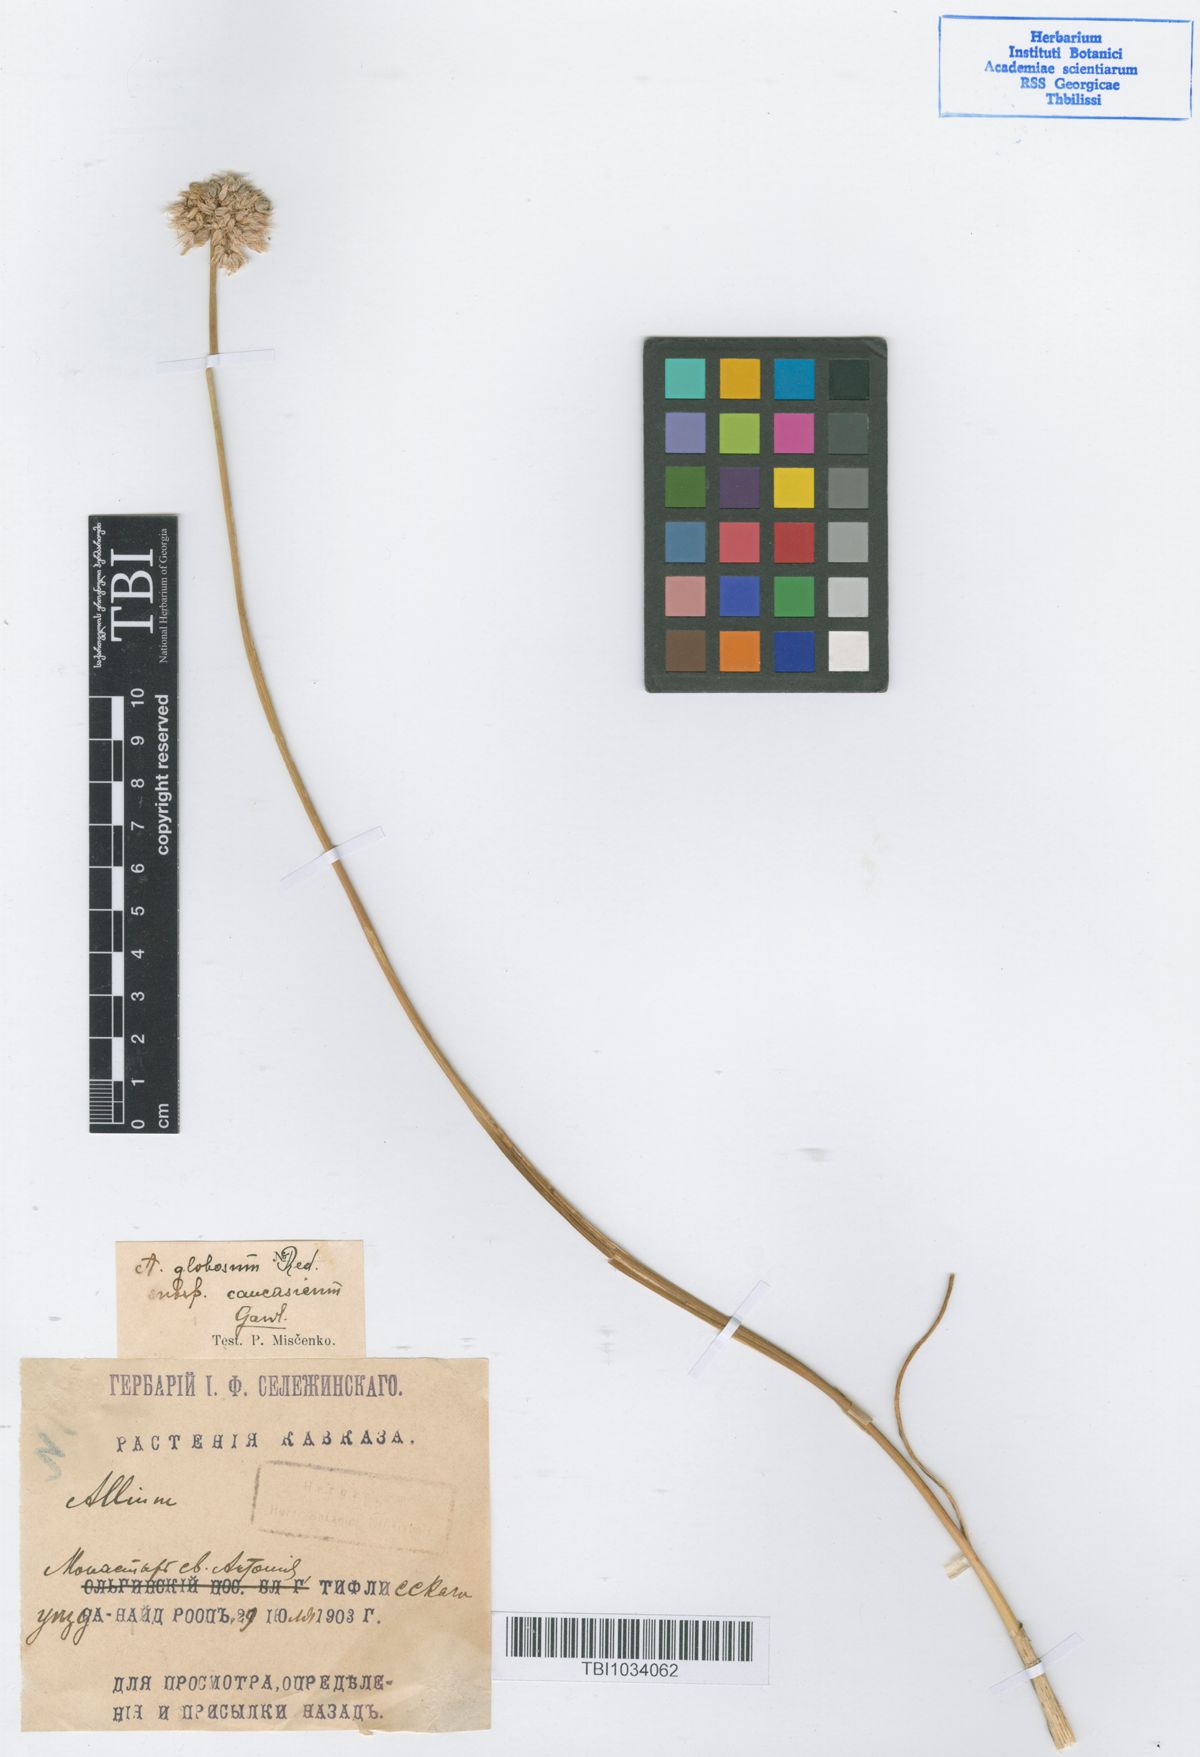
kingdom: Plantae
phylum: Tracheophyta
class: Liliopsida
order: Asparagales
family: Amaryllidaceae
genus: Allium
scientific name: Allium saxatile
